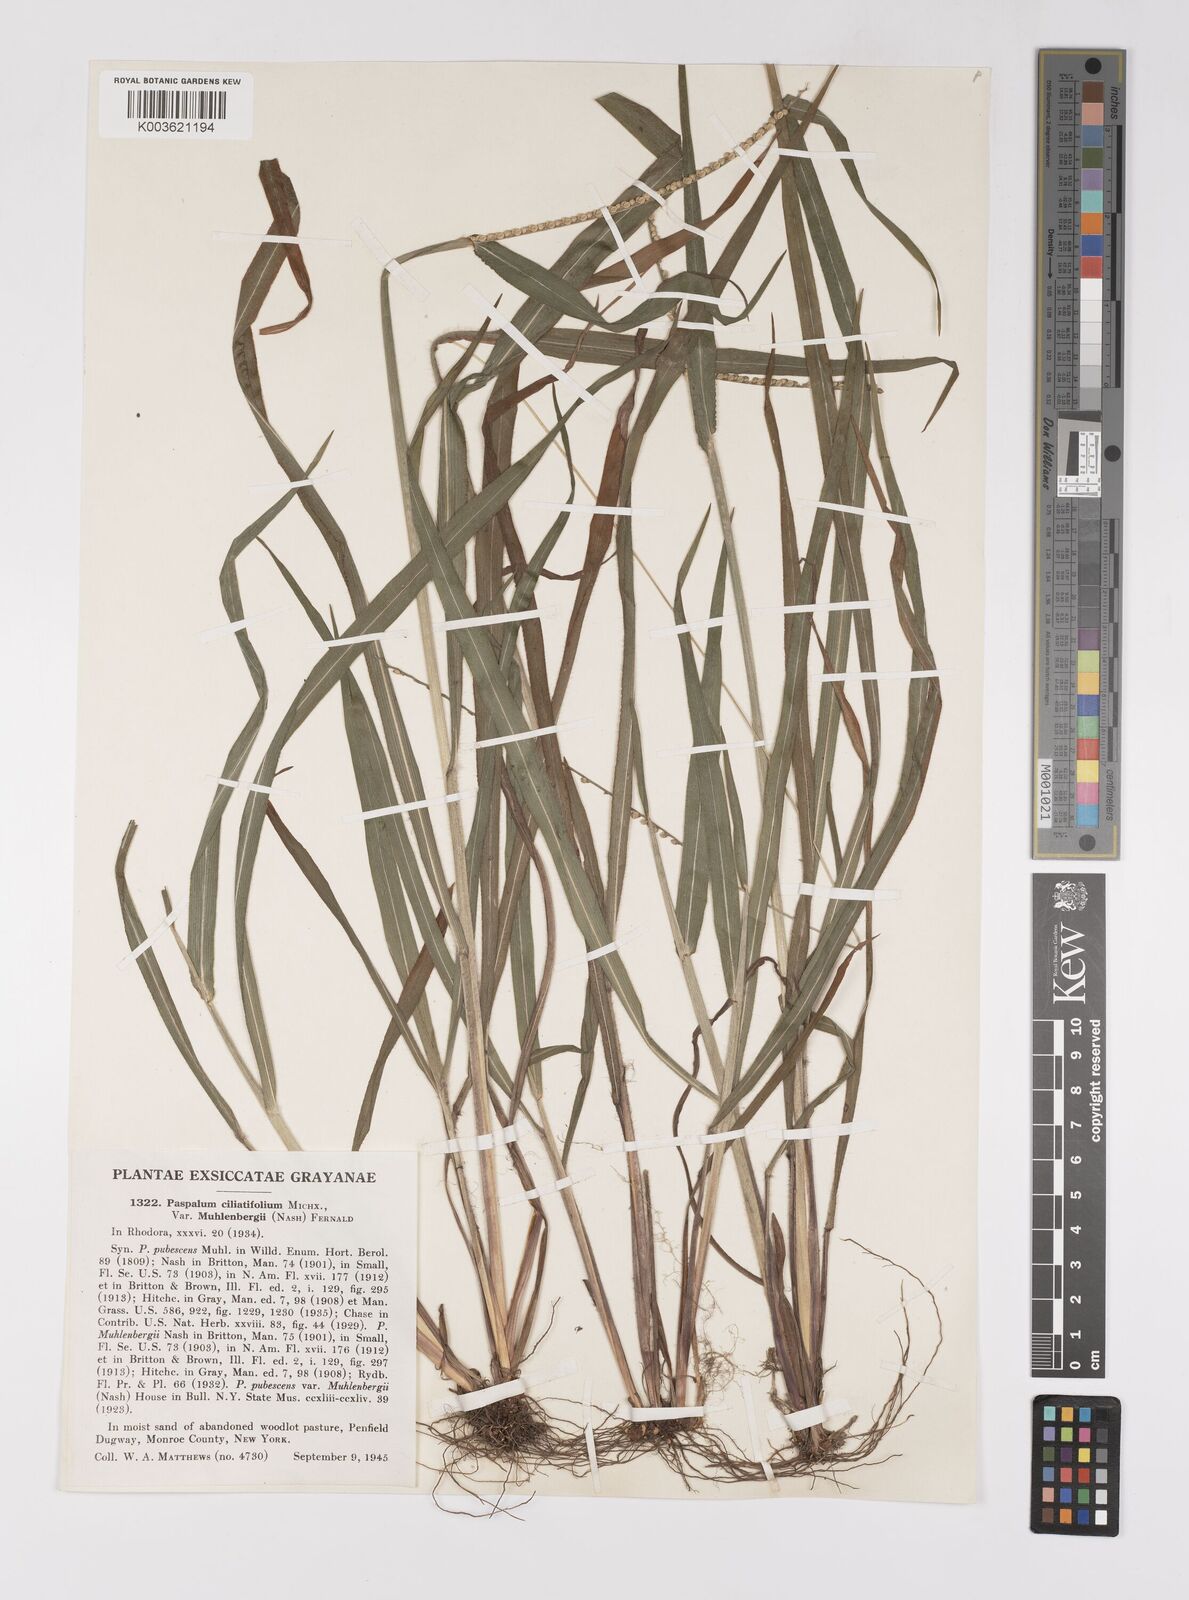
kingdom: Plantae
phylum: Tracheophyta
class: Liliopsida
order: Poales
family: Poaceae
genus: Paspalum
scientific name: Paspalum setaceum
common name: Slender paspalum
